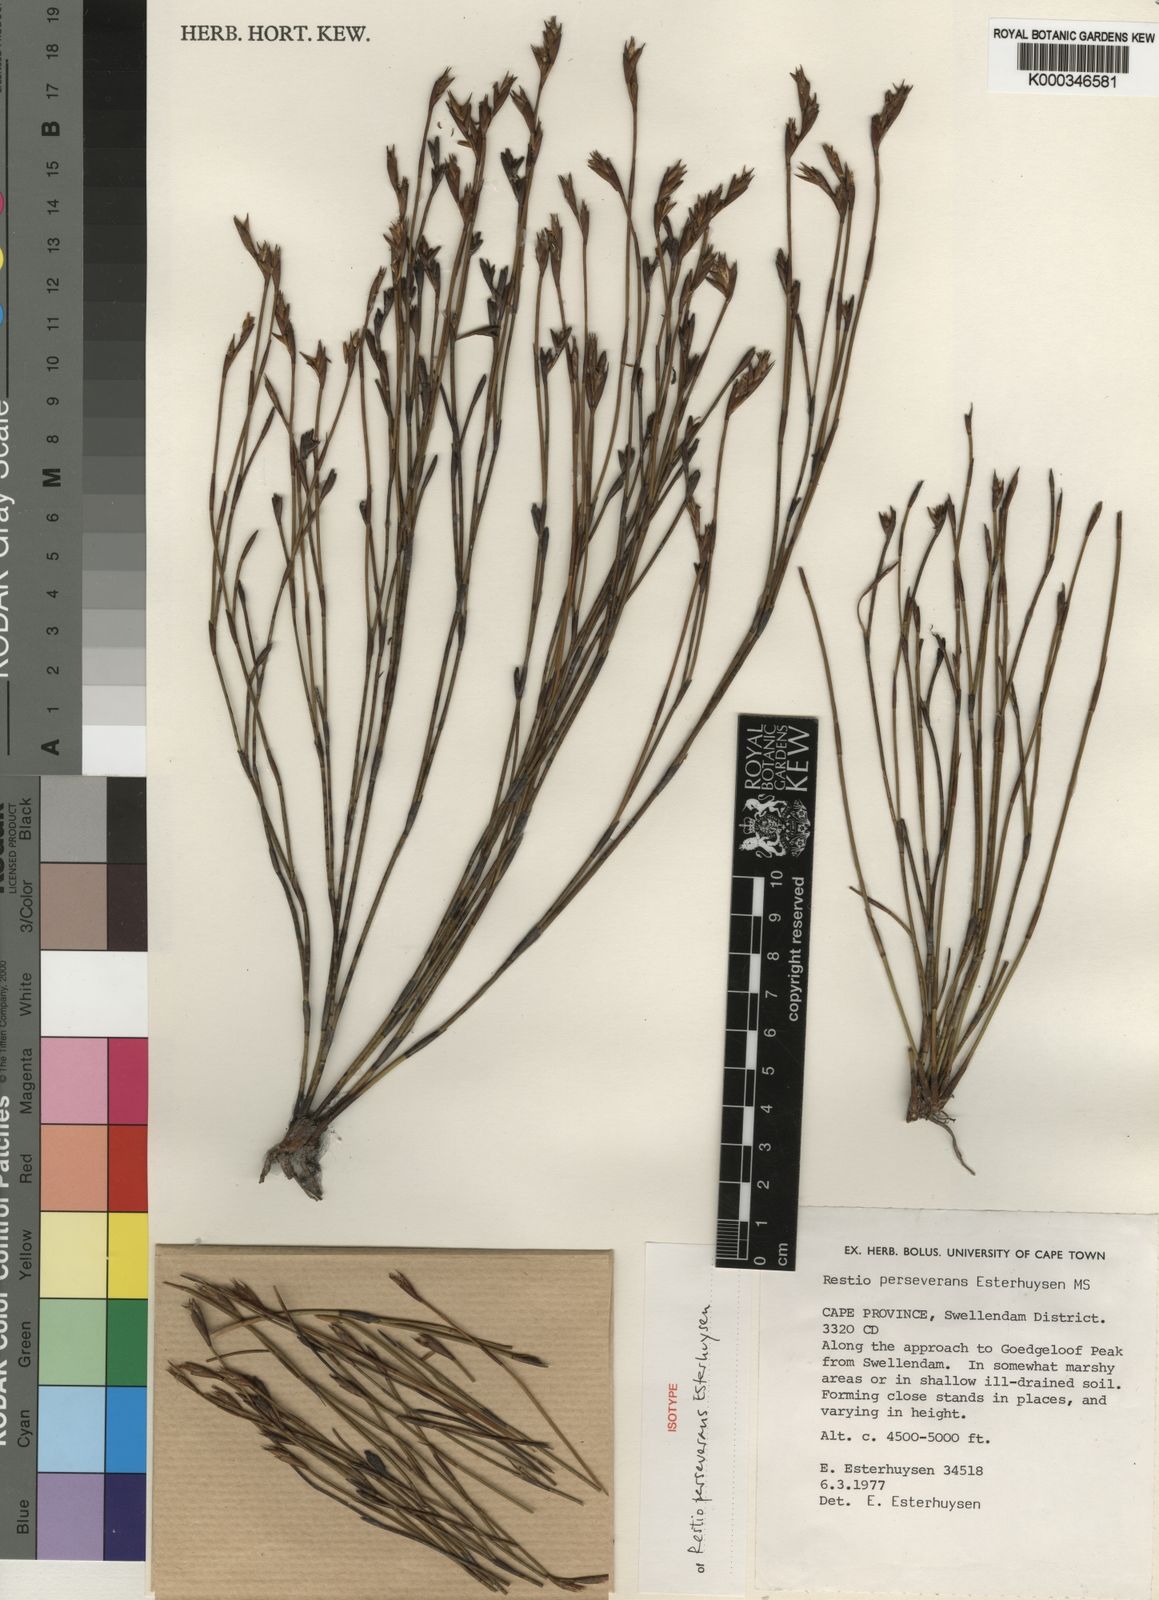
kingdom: Plantae
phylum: Tracheophyta
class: Liliopsida
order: Poales
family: Restionaceae
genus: Restio
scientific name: Restio perseverans
